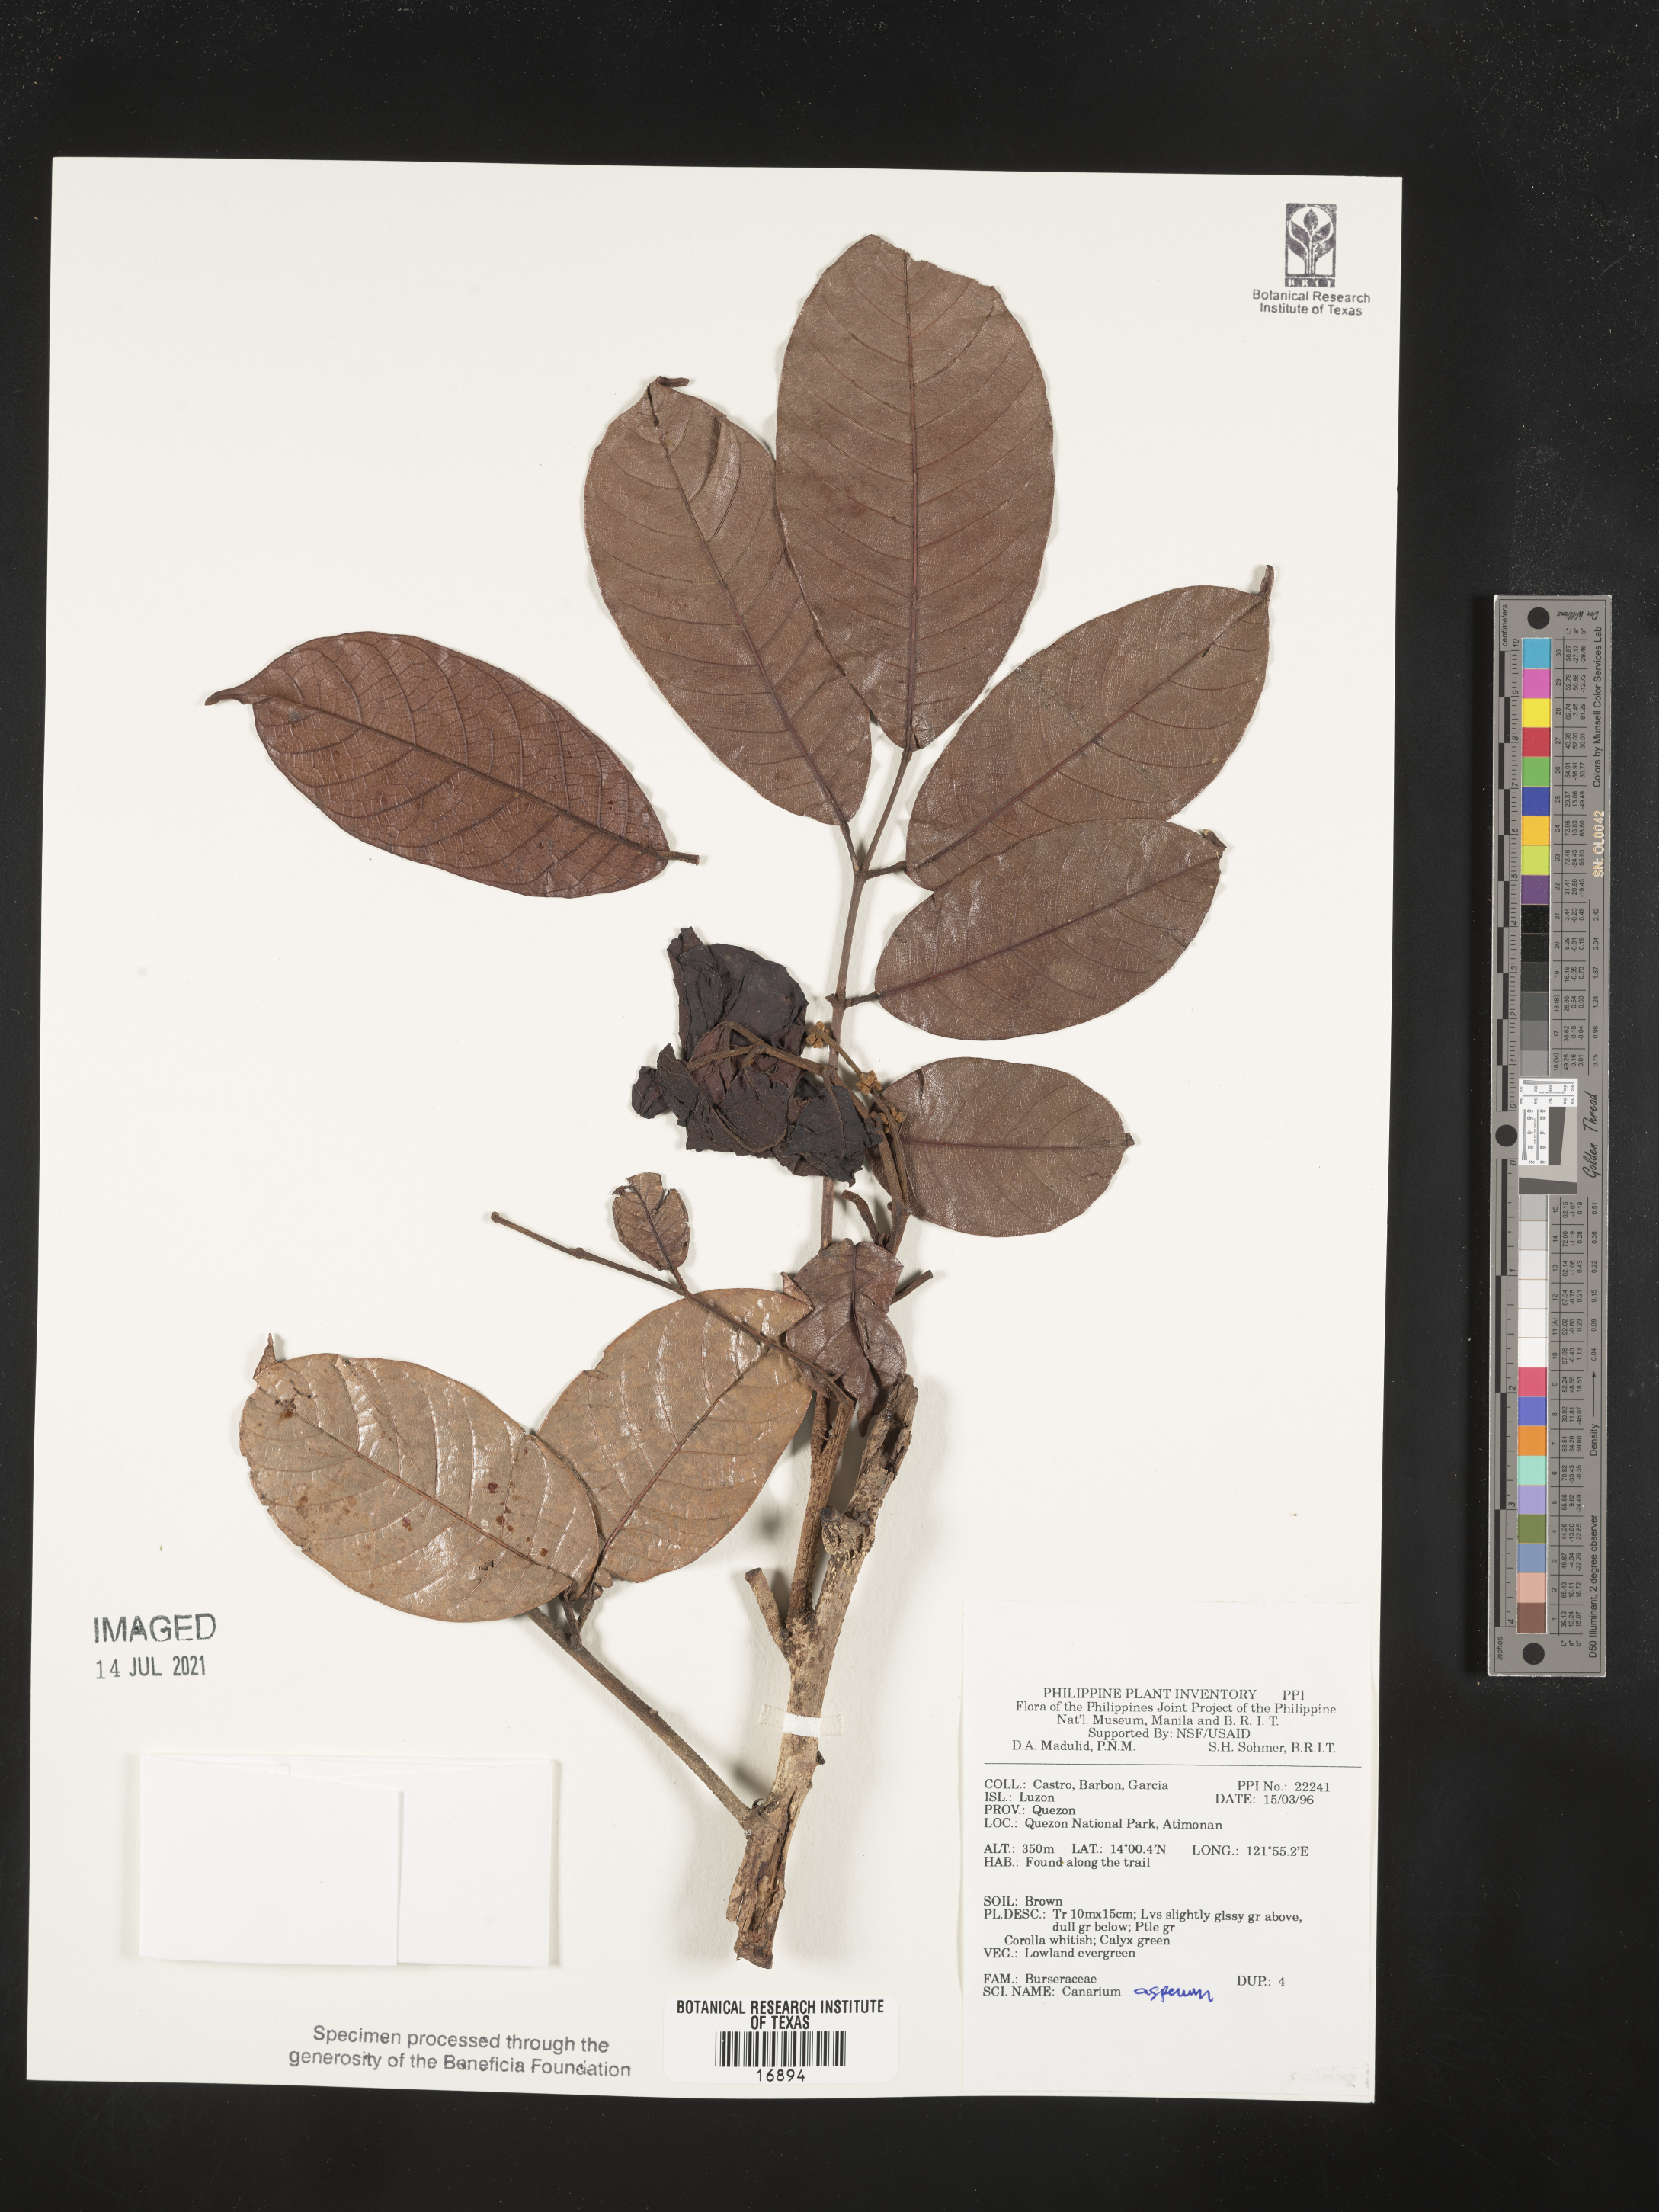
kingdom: Plantae
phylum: Tracheophyta
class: Magnoliopsida
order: Sapindales
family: Burseraceae
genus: Canarium
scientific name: Canarium asperum
